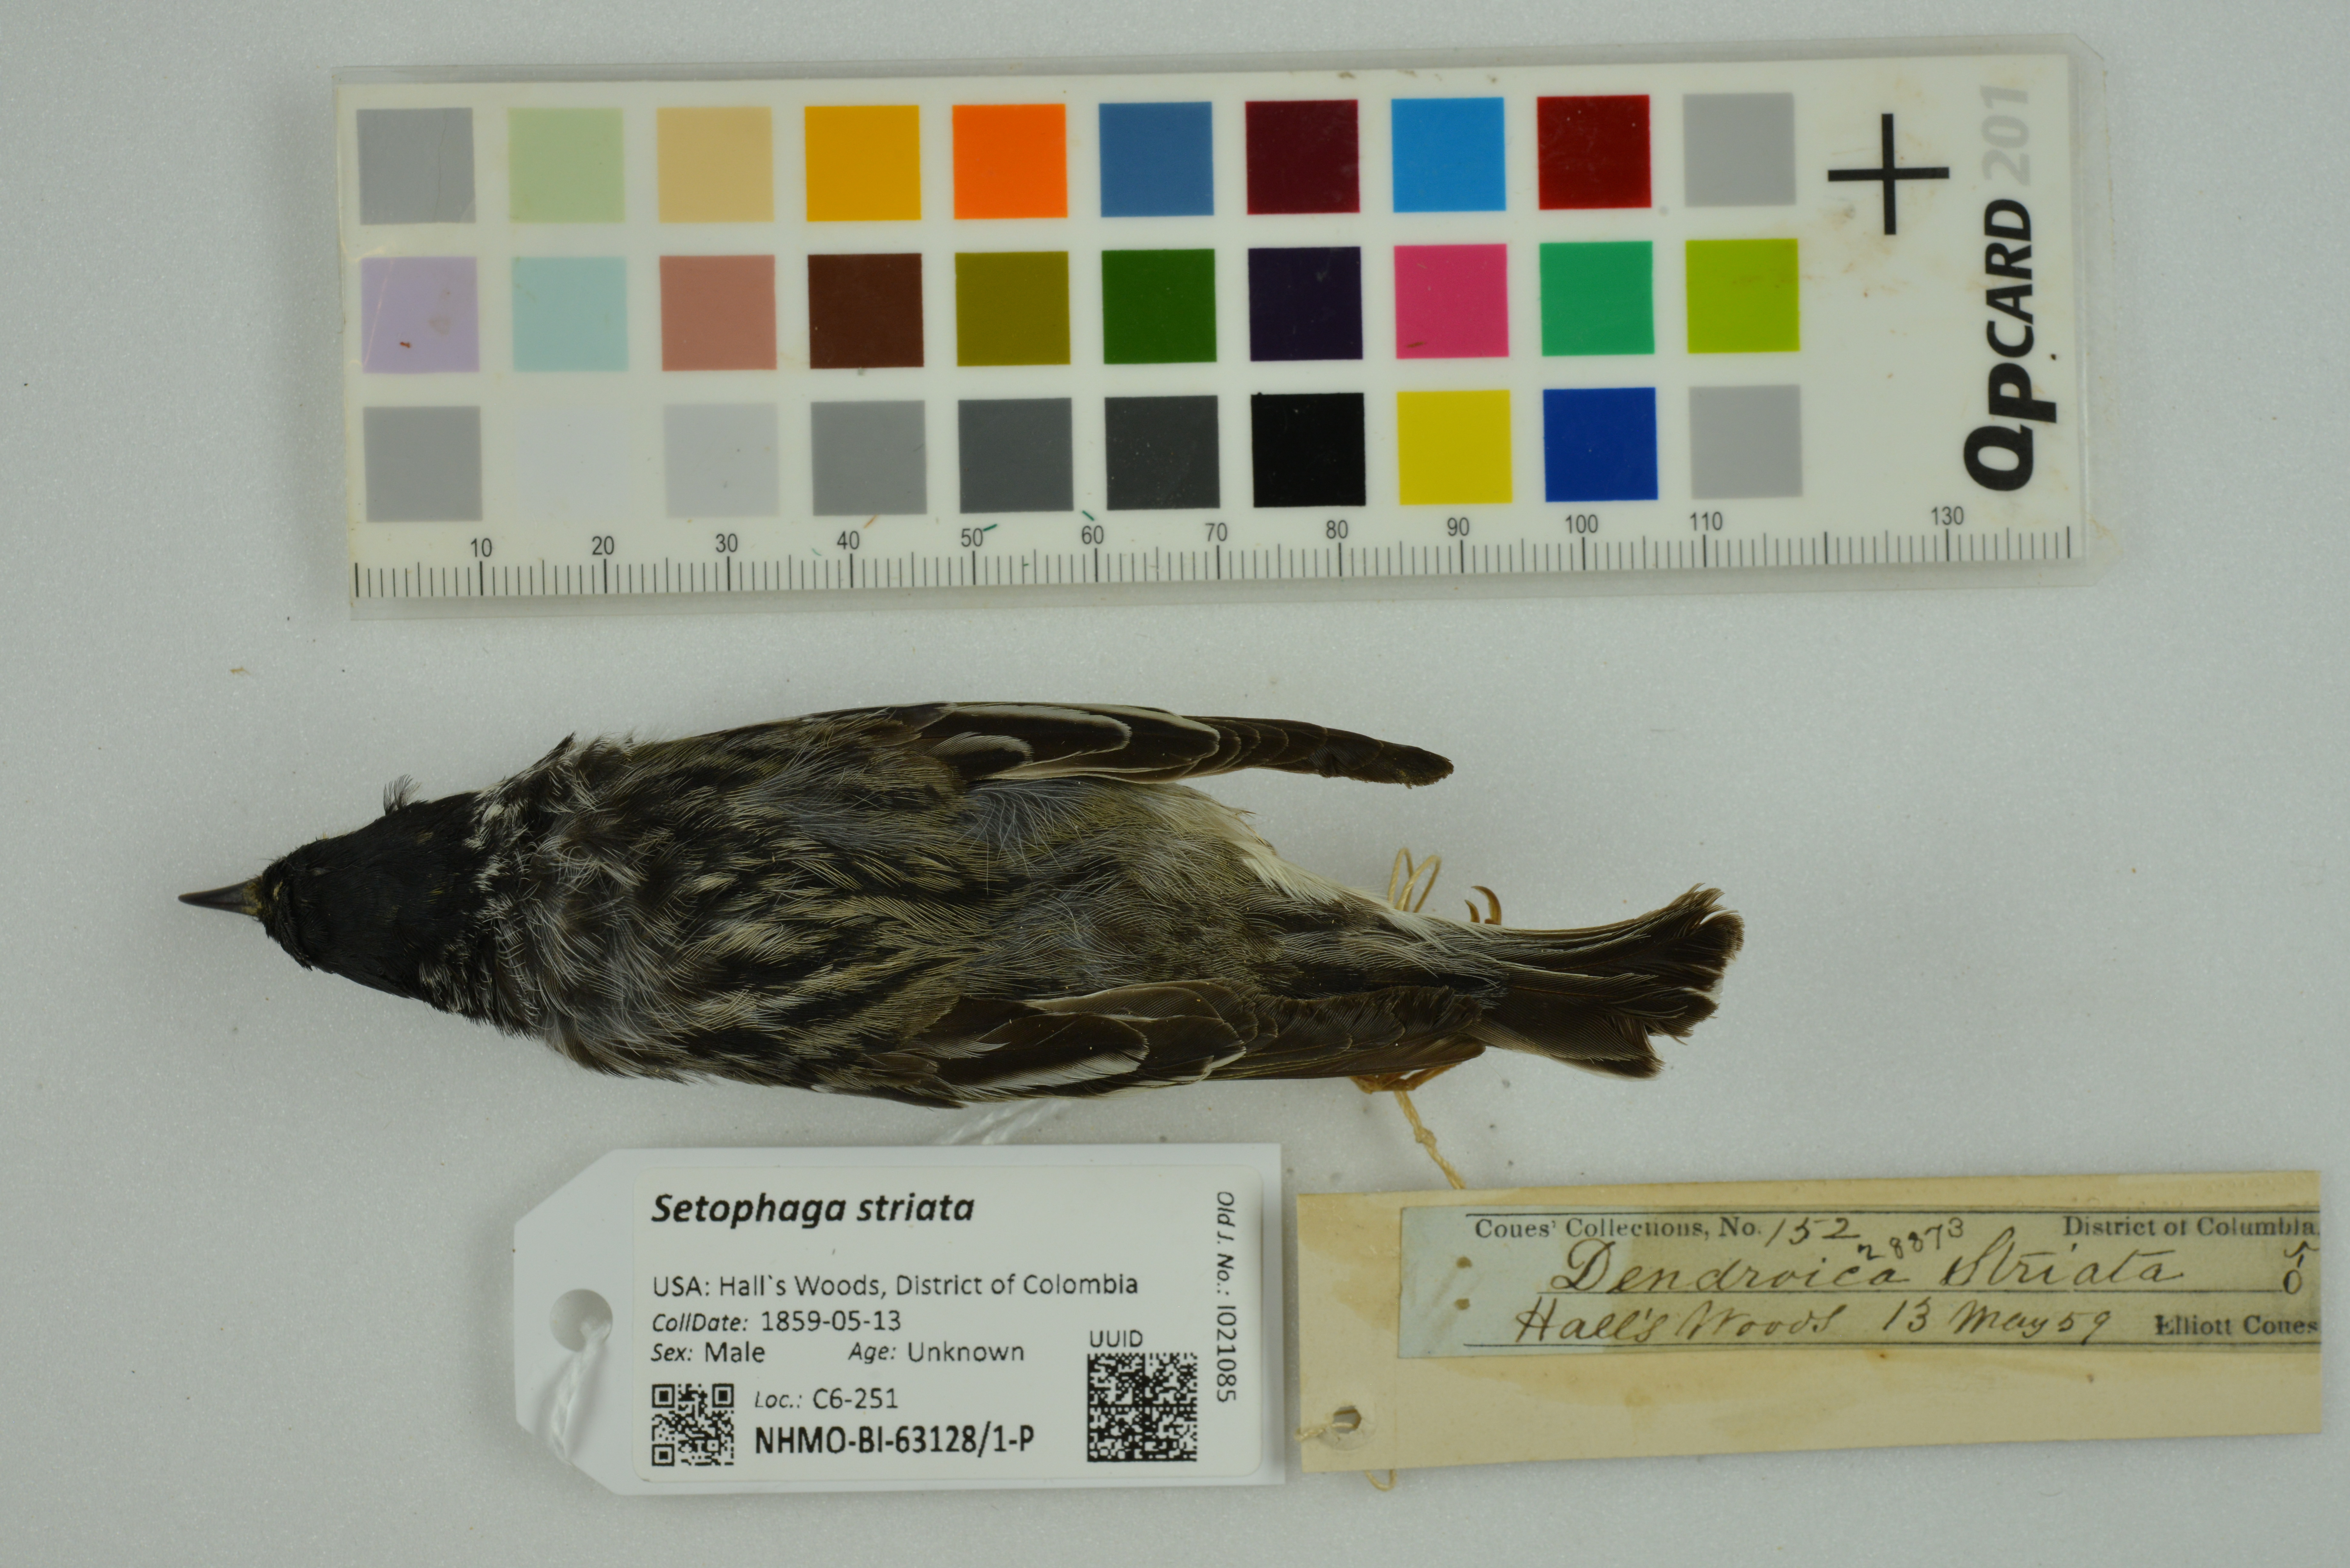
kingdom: Animalia
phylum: Chordata
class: Aves
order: Passeriformes
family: Parulidae
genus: Setophaga
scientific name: Setophaga striata
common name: Blackpoll warbler
